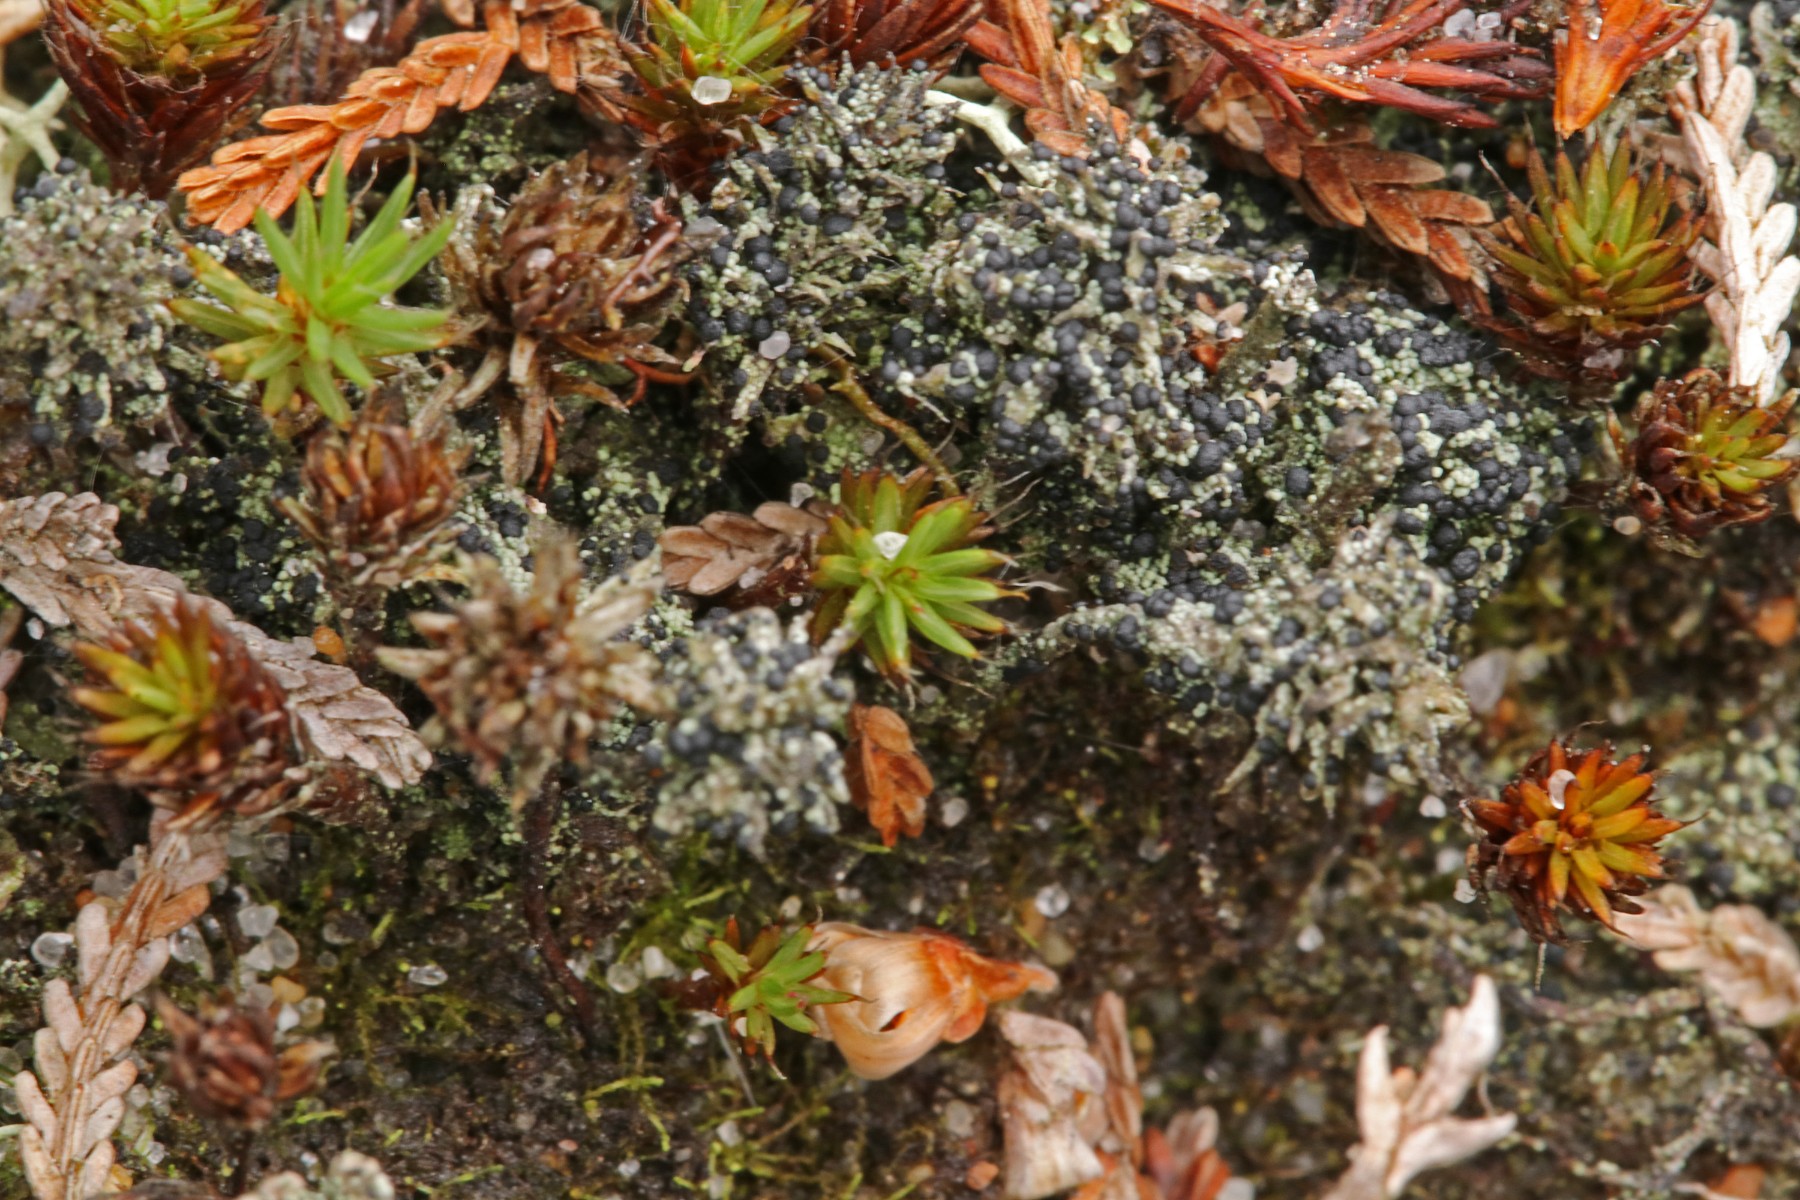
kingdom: Fungi
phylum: Ascomycota
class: Lecanoromycetes
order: Lecanorales
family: Byssolomataceae
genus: Micarea
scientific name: Micarea lignaria
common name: tørve-knaplav
